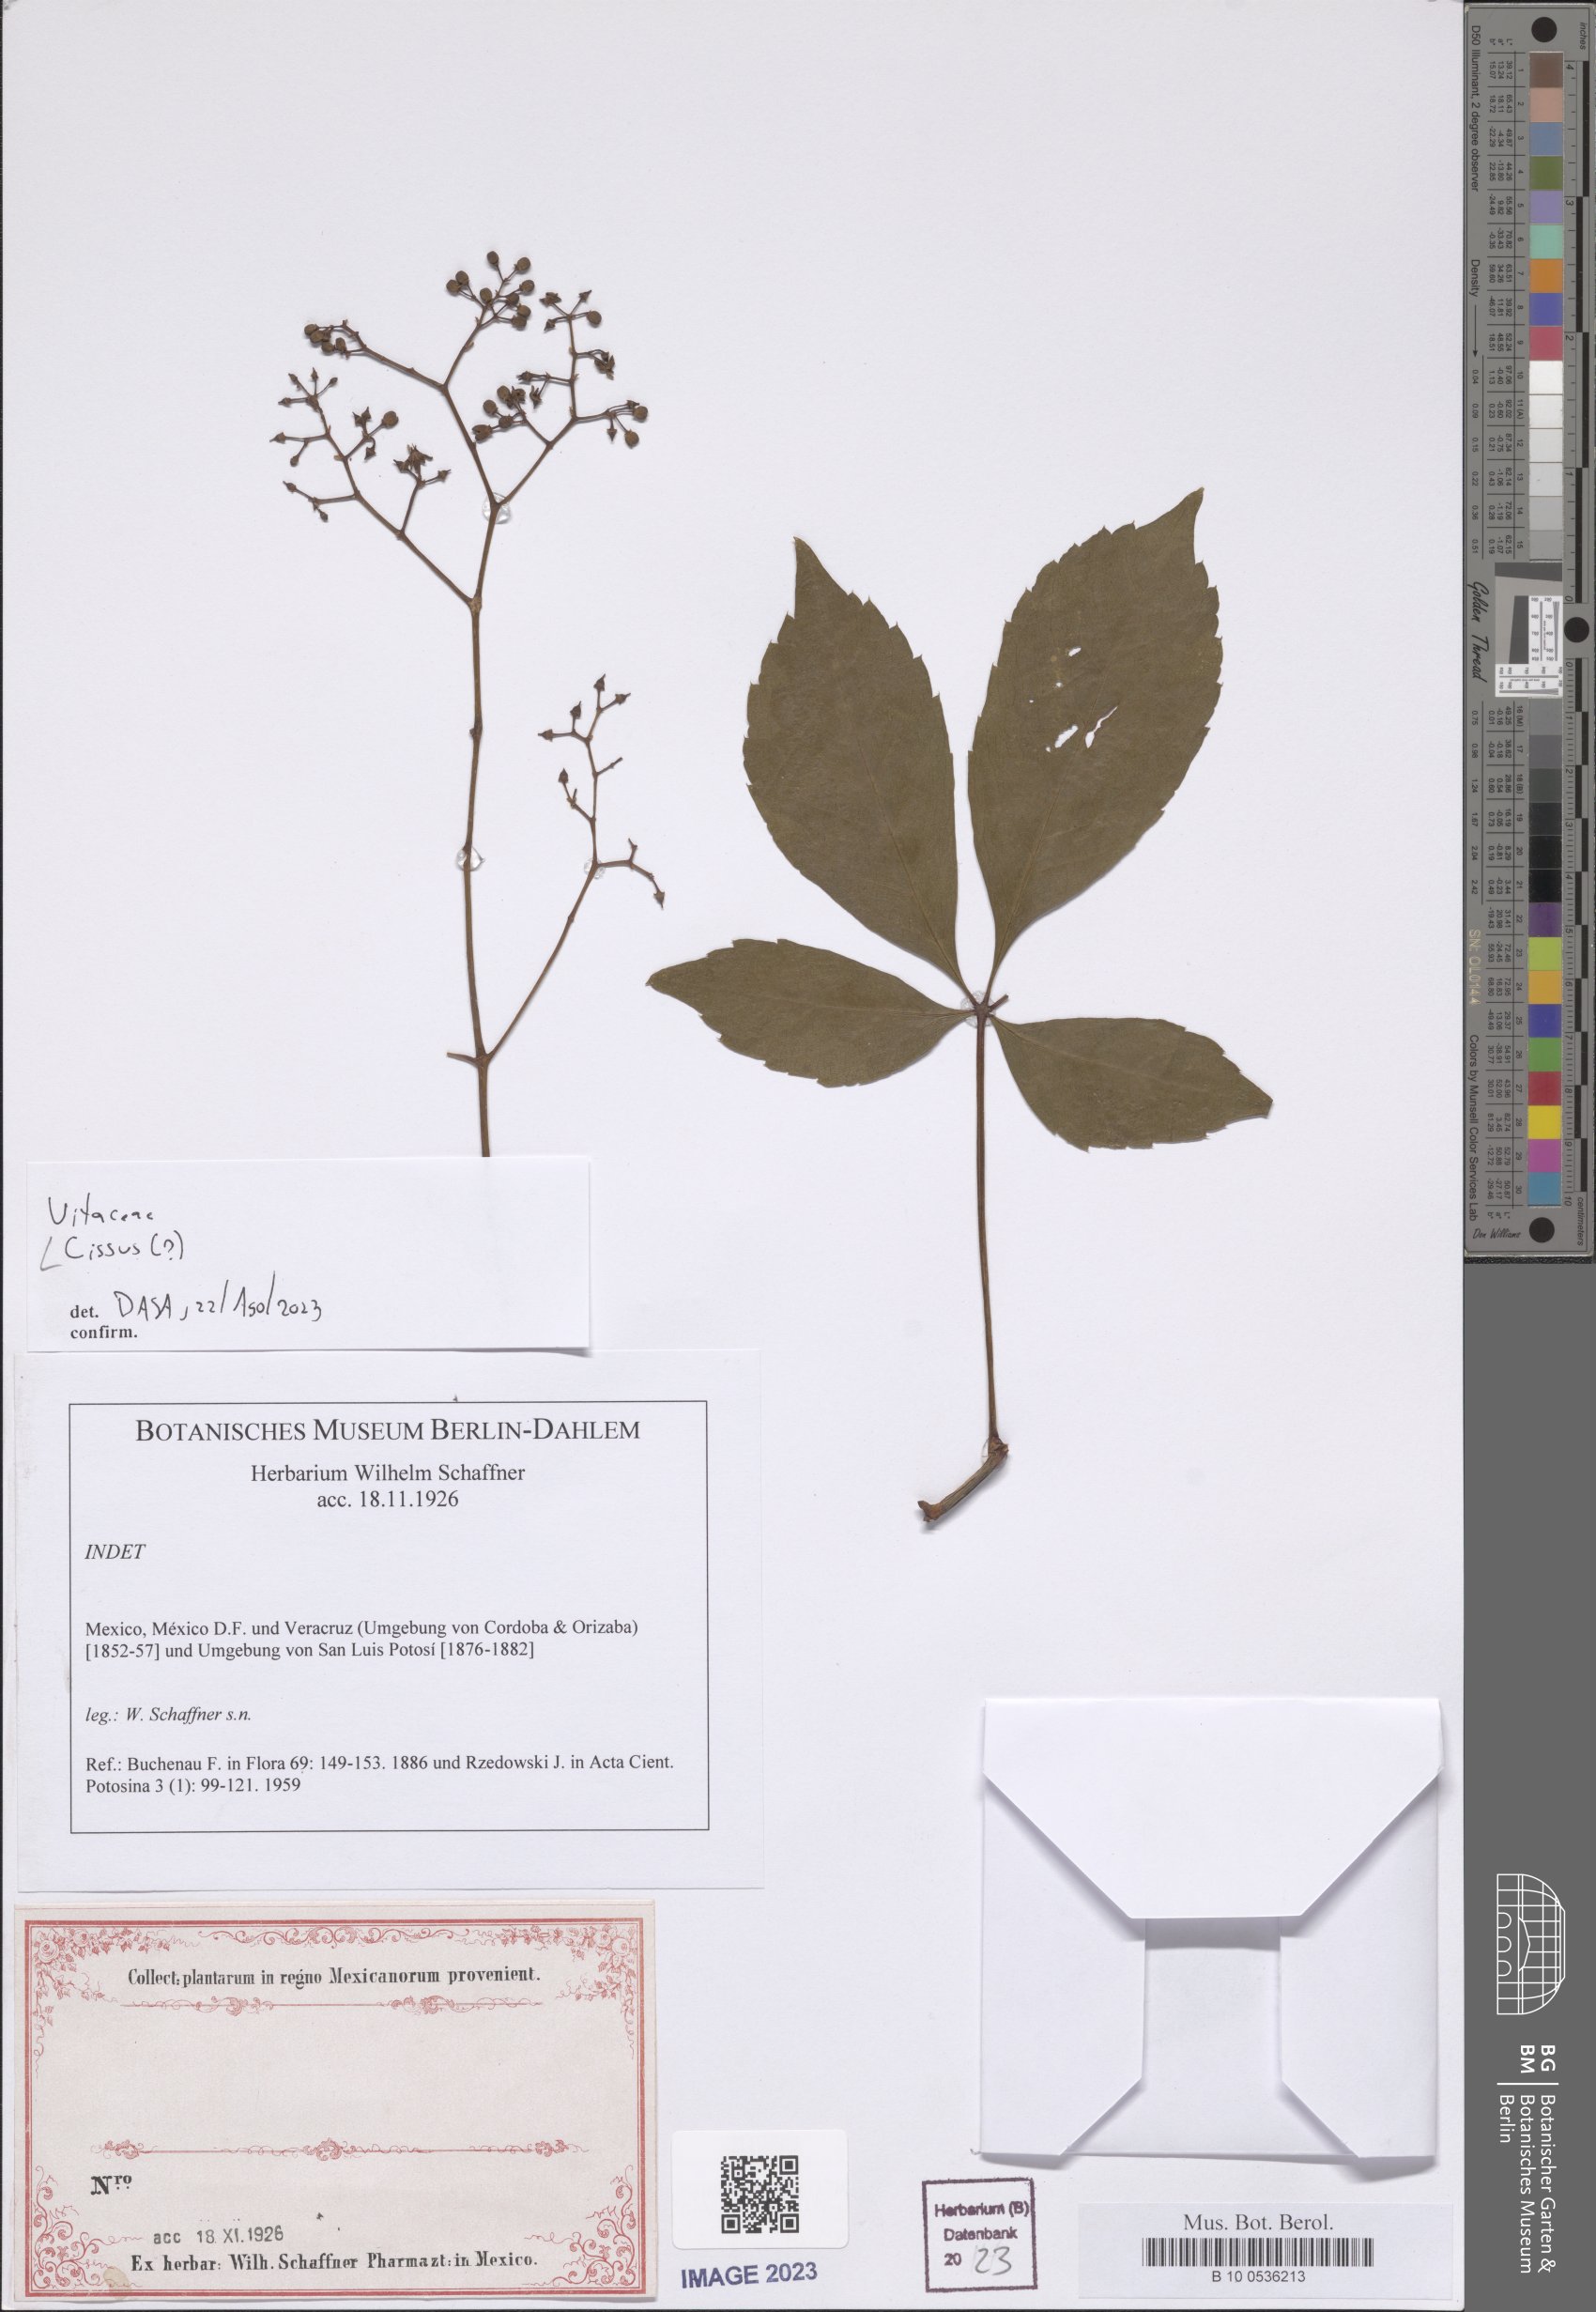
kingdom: Plantae
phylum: Tracheophyta
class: Magnoliopsida
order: Vitales
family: Vitaceae
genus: Cissus
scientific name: Cissus
